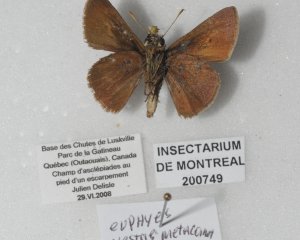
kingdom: Animalia
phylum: Arthropoda
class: Insecta
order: Lepidoptera
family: Hesperiidae
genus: Euphyes
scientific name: Euphyes vestris
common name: Dun Skipper
